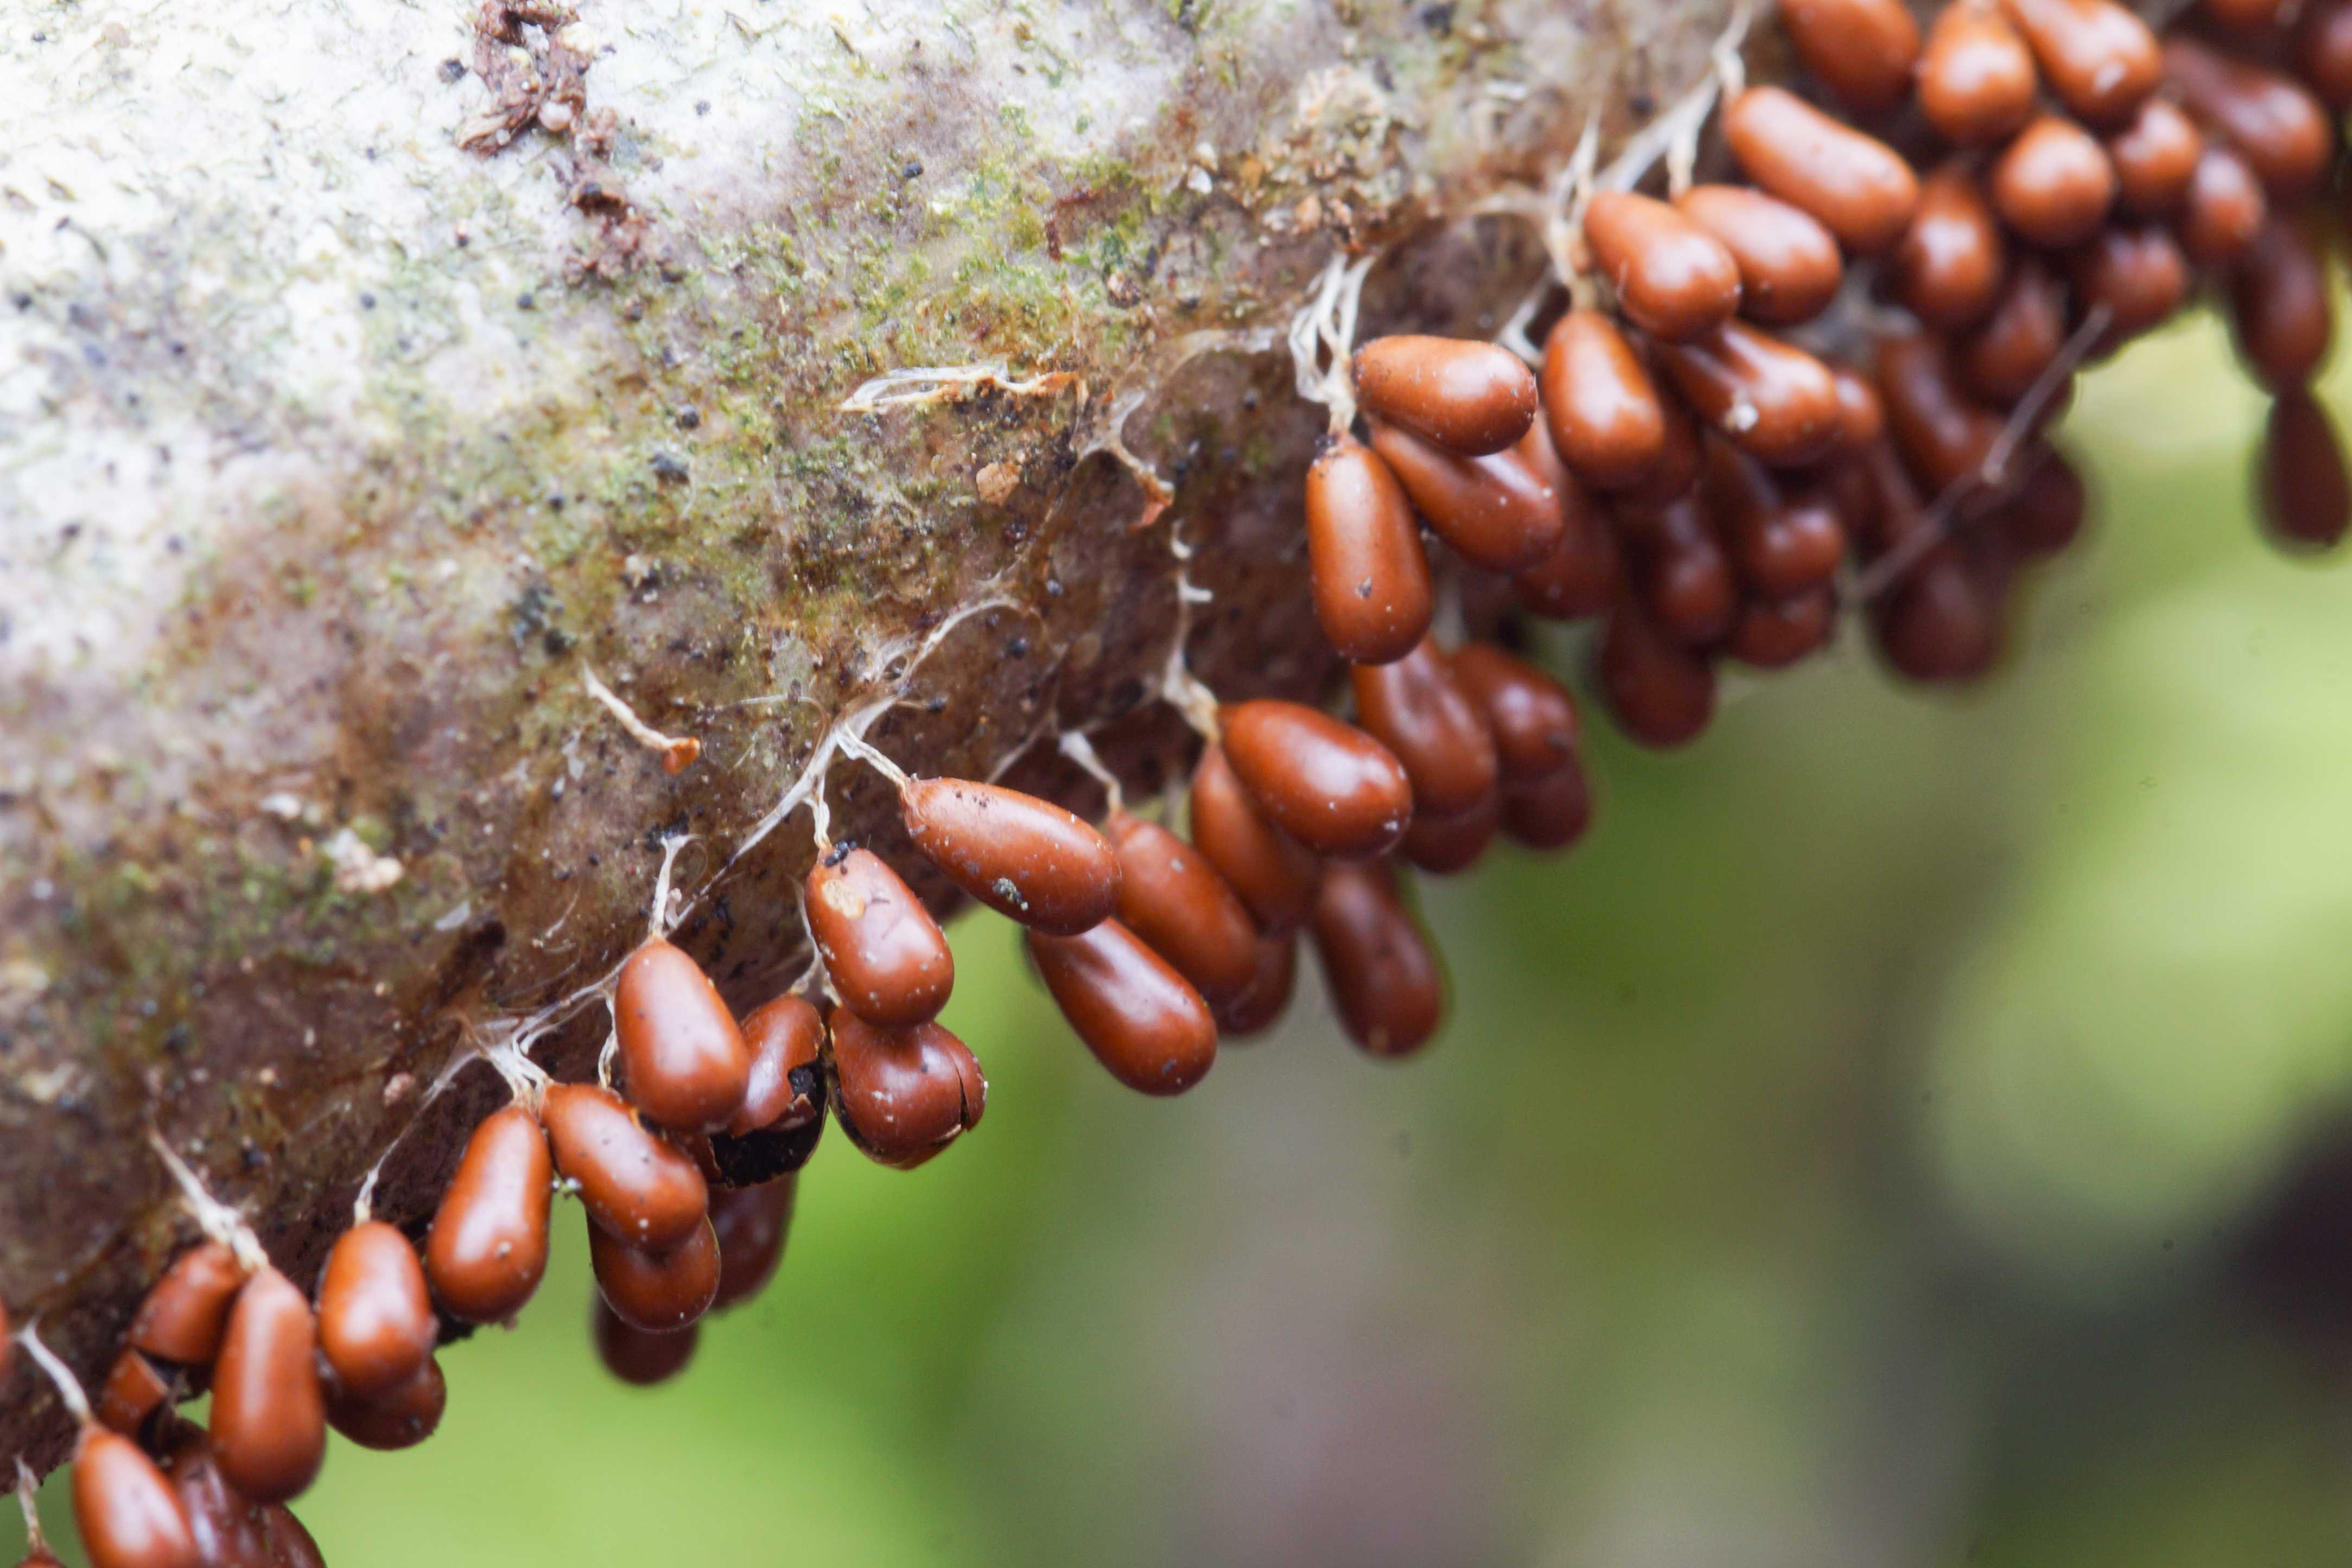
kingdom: Protozoa
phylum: Mycetozoa
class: Myxomycetes
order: Physarales
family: Physaraceae
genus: Leocarpus
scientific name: Leocarpus fragilis
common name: poleret glatfrø
